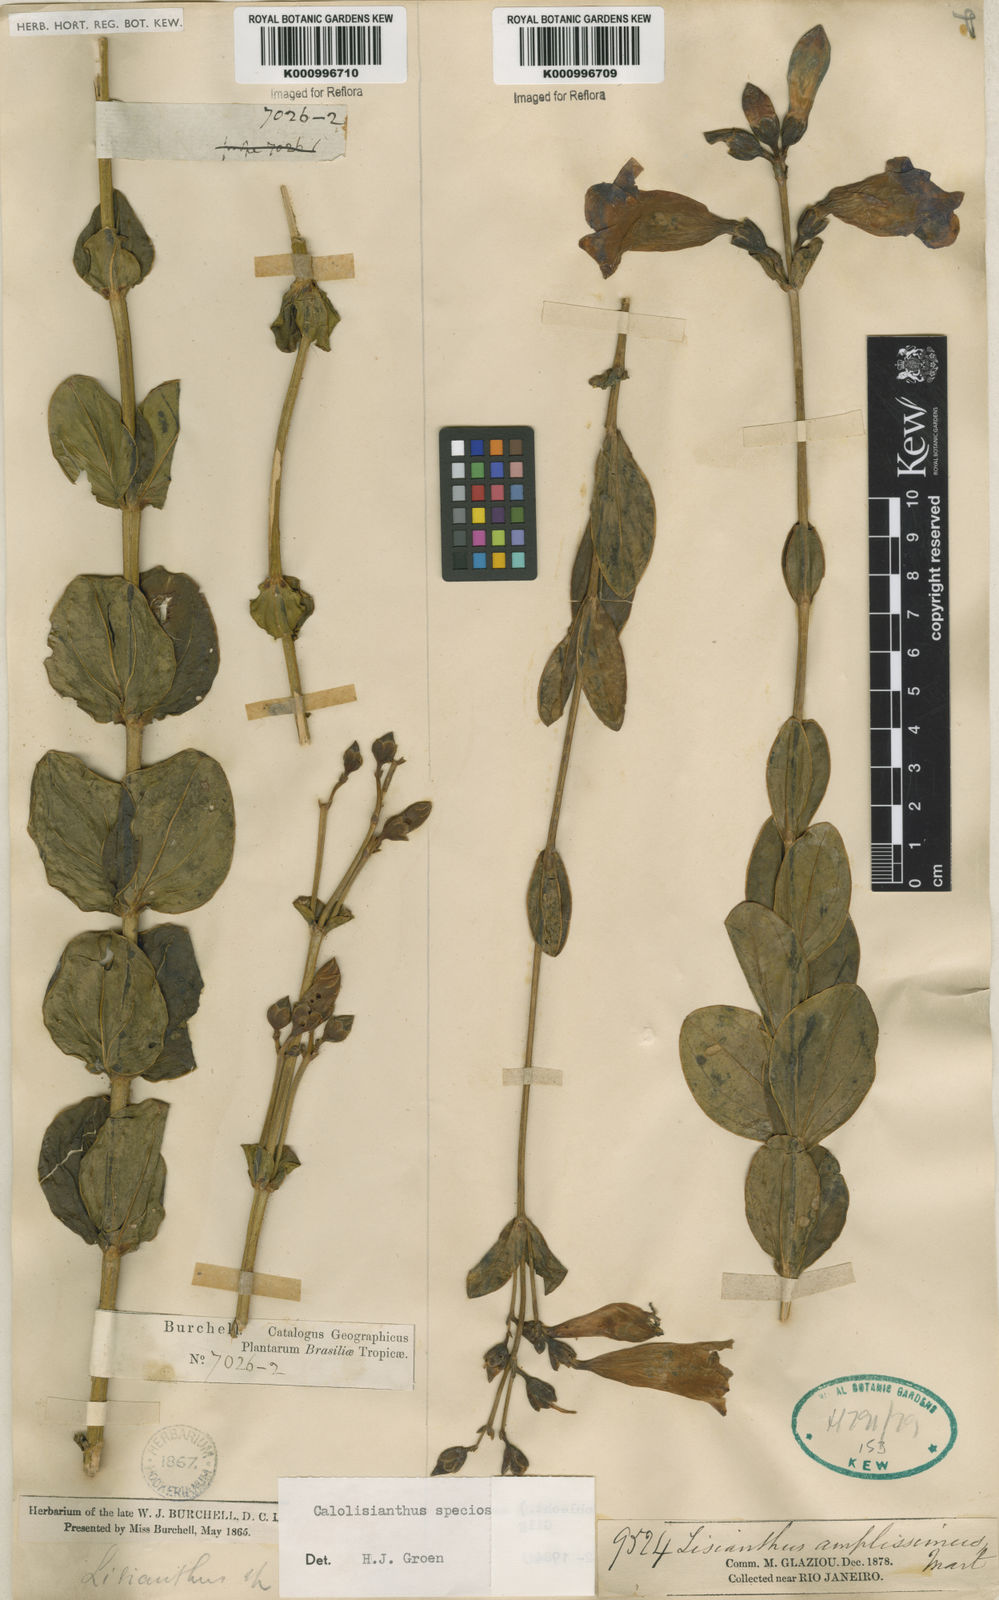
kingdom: Plantae
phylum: Tracheophyta
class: Magnoliopsida
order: Gentianales
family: Gentianaceae
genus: Calolisianthus
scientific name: Calolisianthus speciosus
